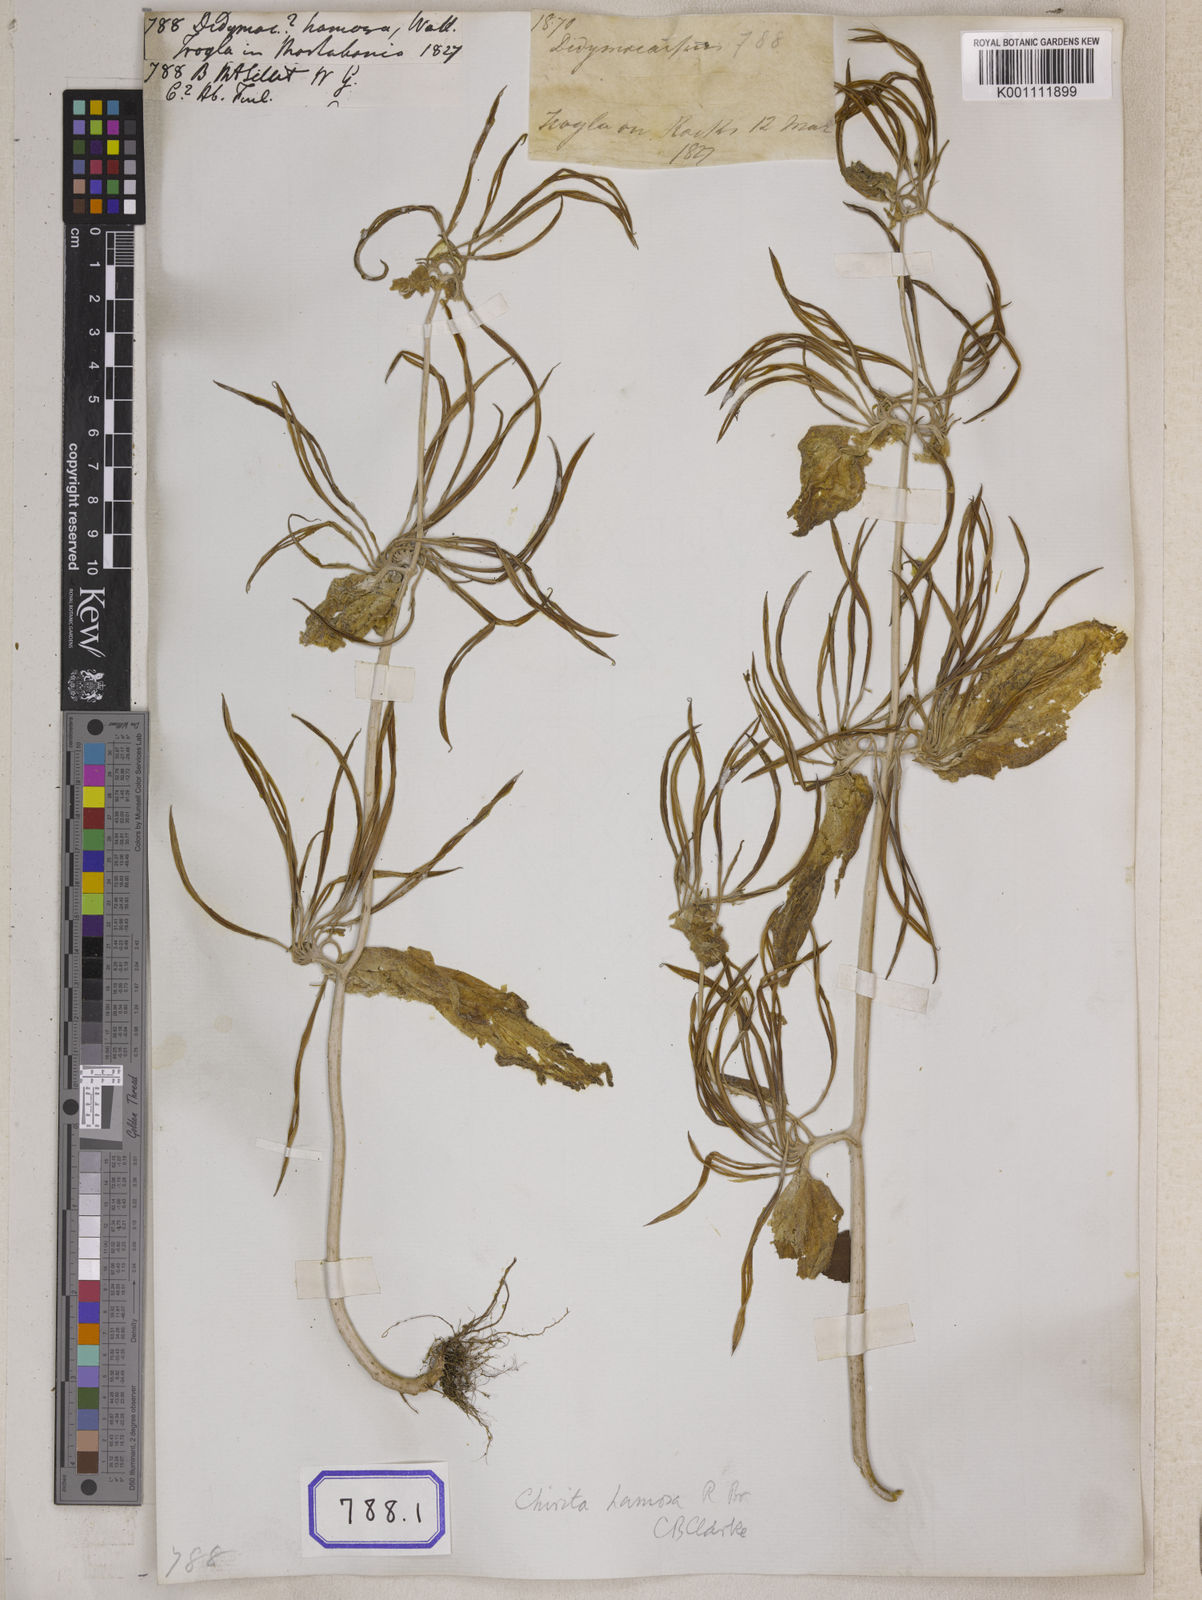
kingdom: Plantae
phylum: Tracheophyta
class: Magnoliopsida
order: Lamiales
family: Gesneriaceae
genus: Didymocarpus
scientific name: Didymocarpus
